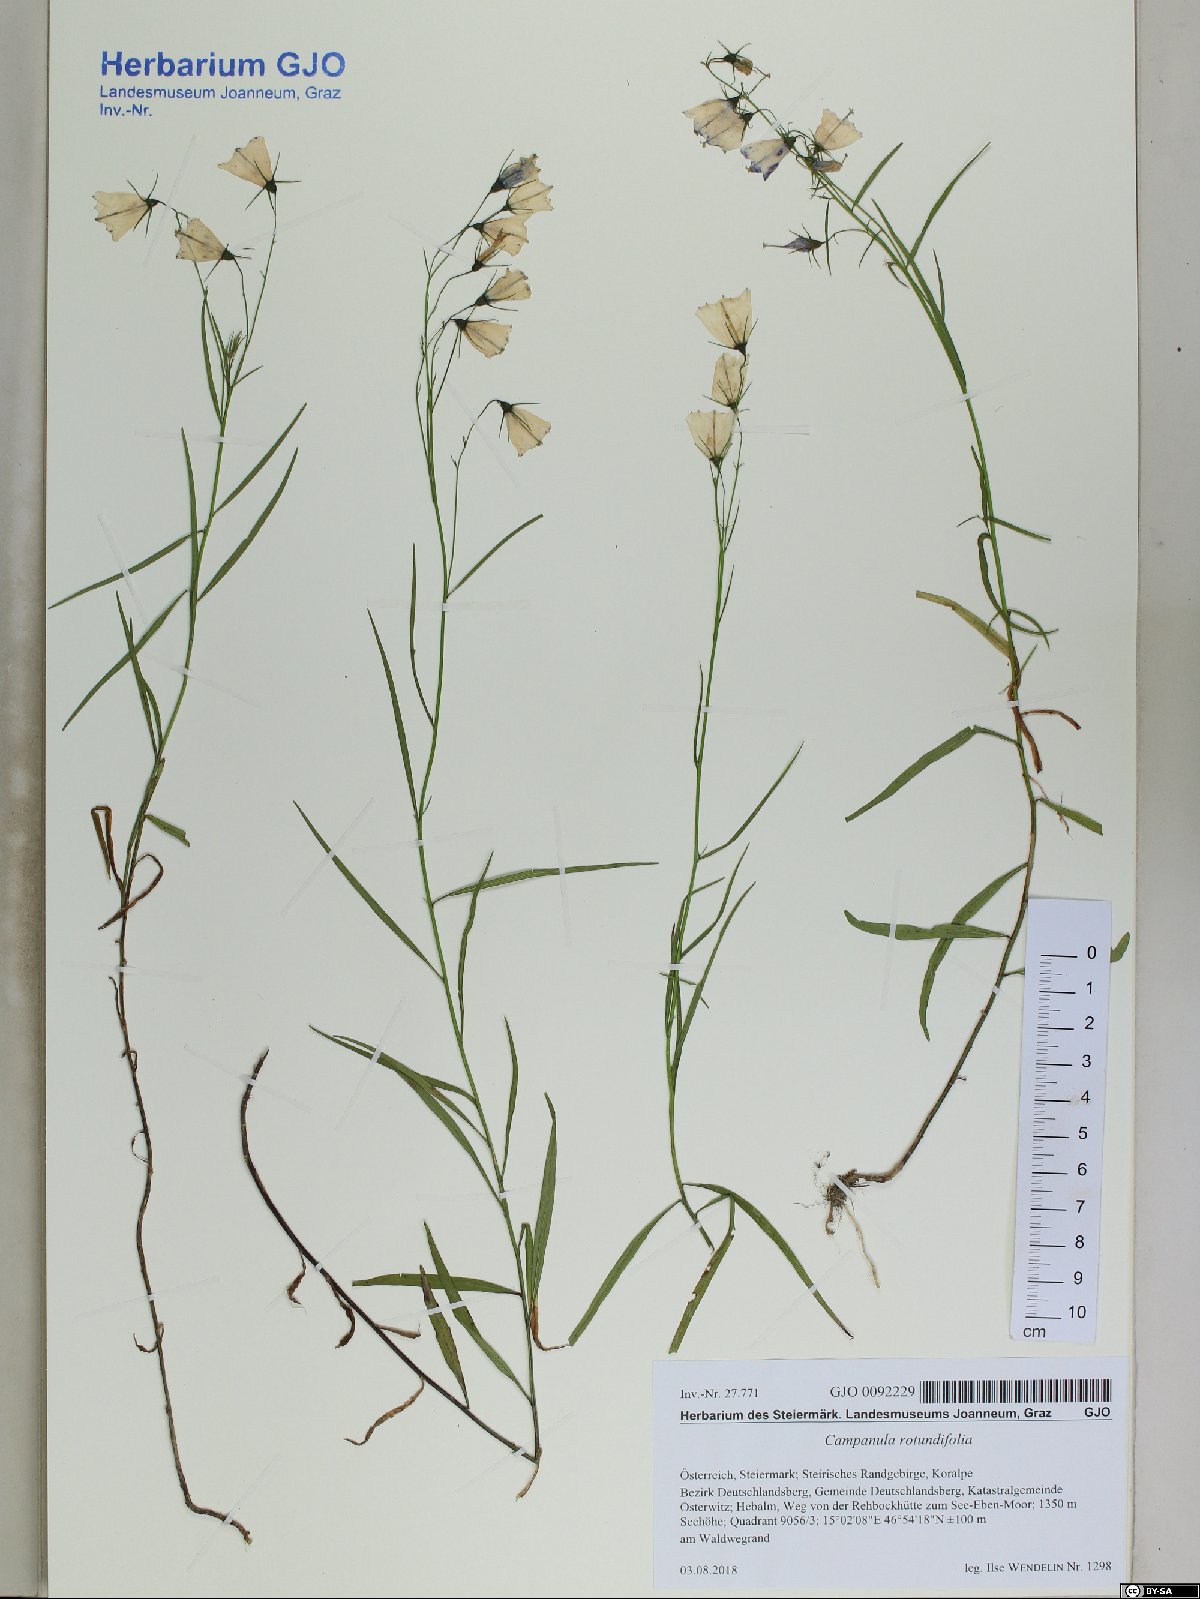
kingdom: Plantae
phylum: Tracheophyta
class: Magnoliopsida
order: Asterales
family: Campanulaceae
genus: Campanula
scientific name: Campanula rotundifolia
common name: Harebell
